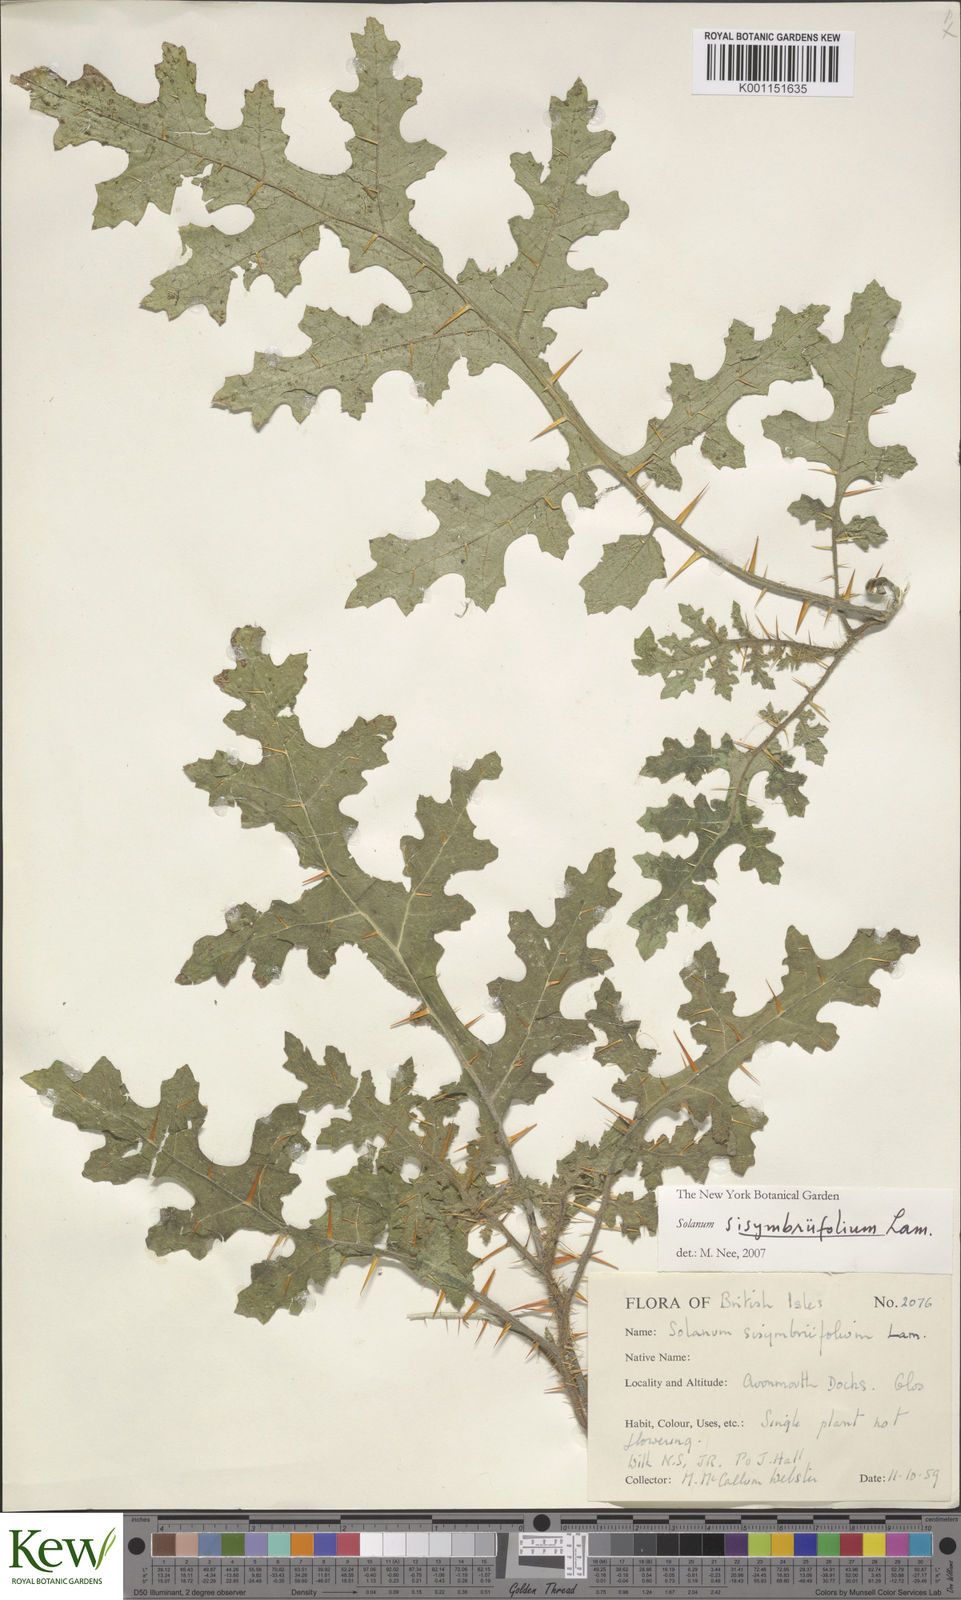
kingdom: Plantae
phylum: Tracheophyta
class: Magnoliopsida
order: Solanales
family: Solanaceae
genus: Solanum
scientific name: Solanum sisymbriifolium
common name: Red buffalo-bur
